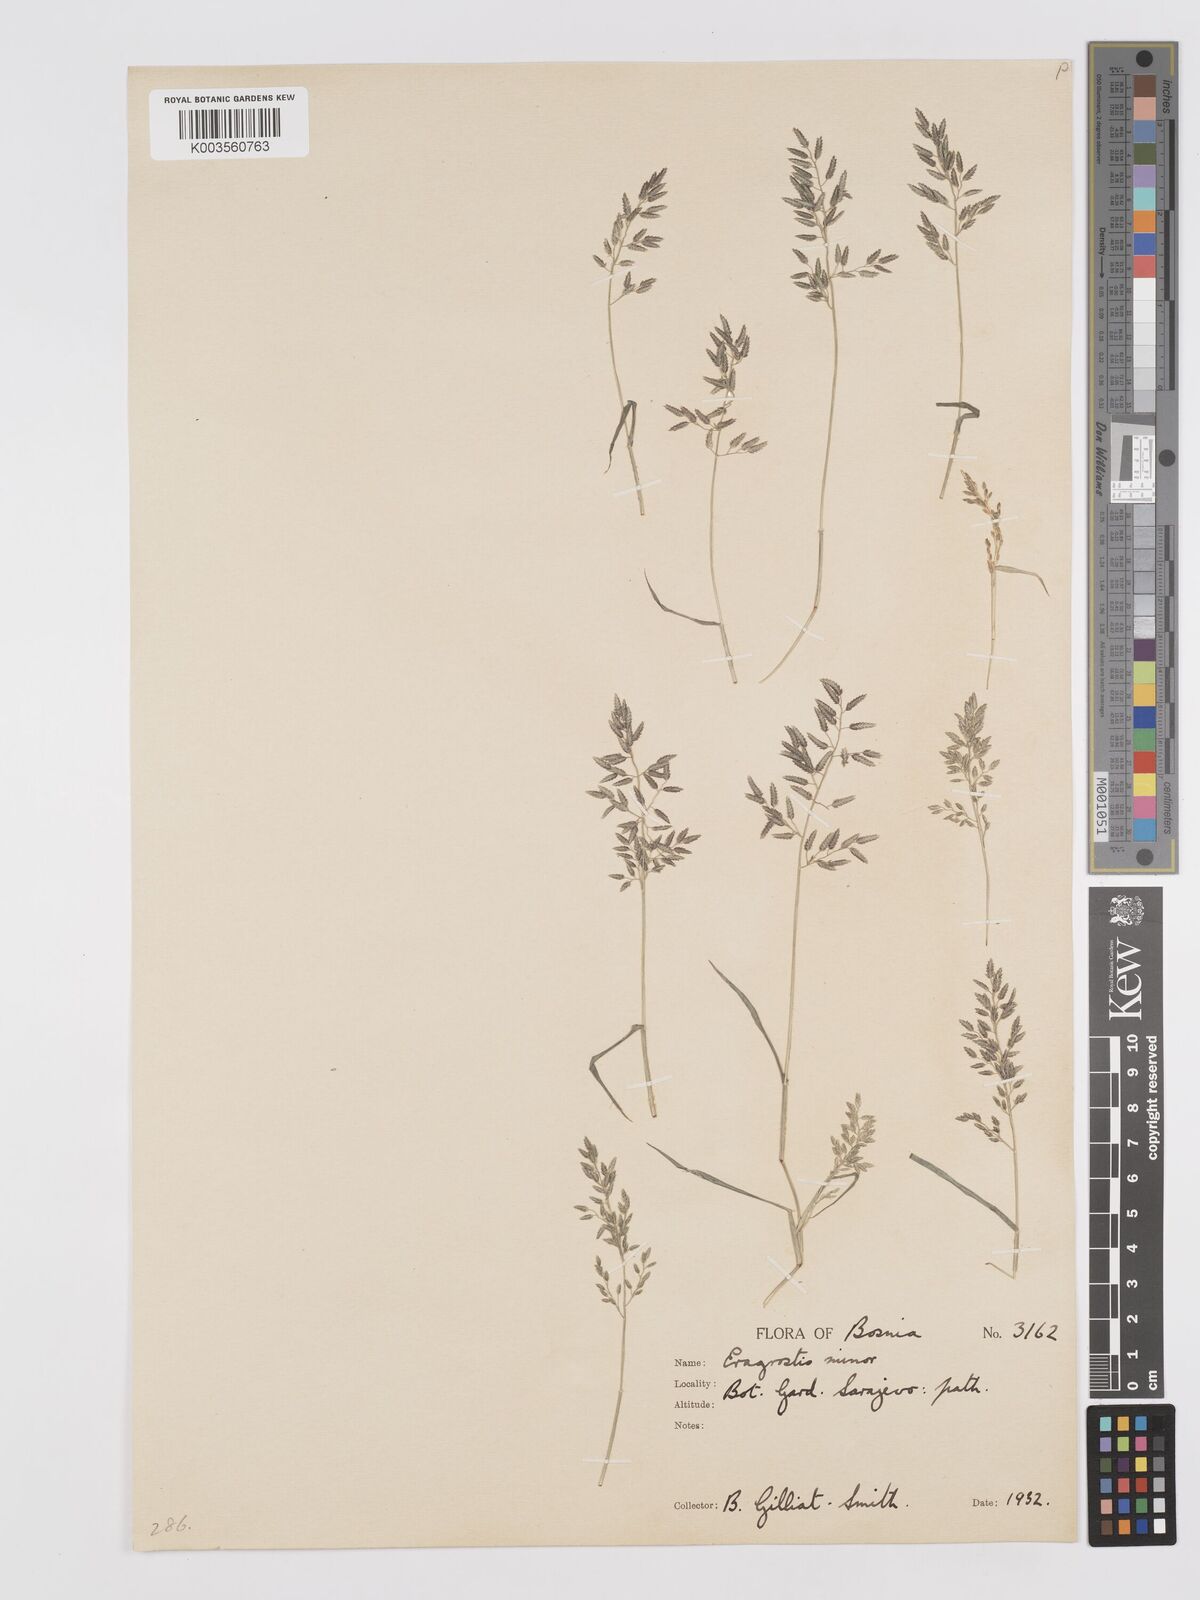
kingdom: Plantae
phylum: Tracheophyta
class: Liliopsida
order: Poales
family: Poaceae
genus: Eragrostis
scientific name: Eragrostis minor
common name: Small love-grass
